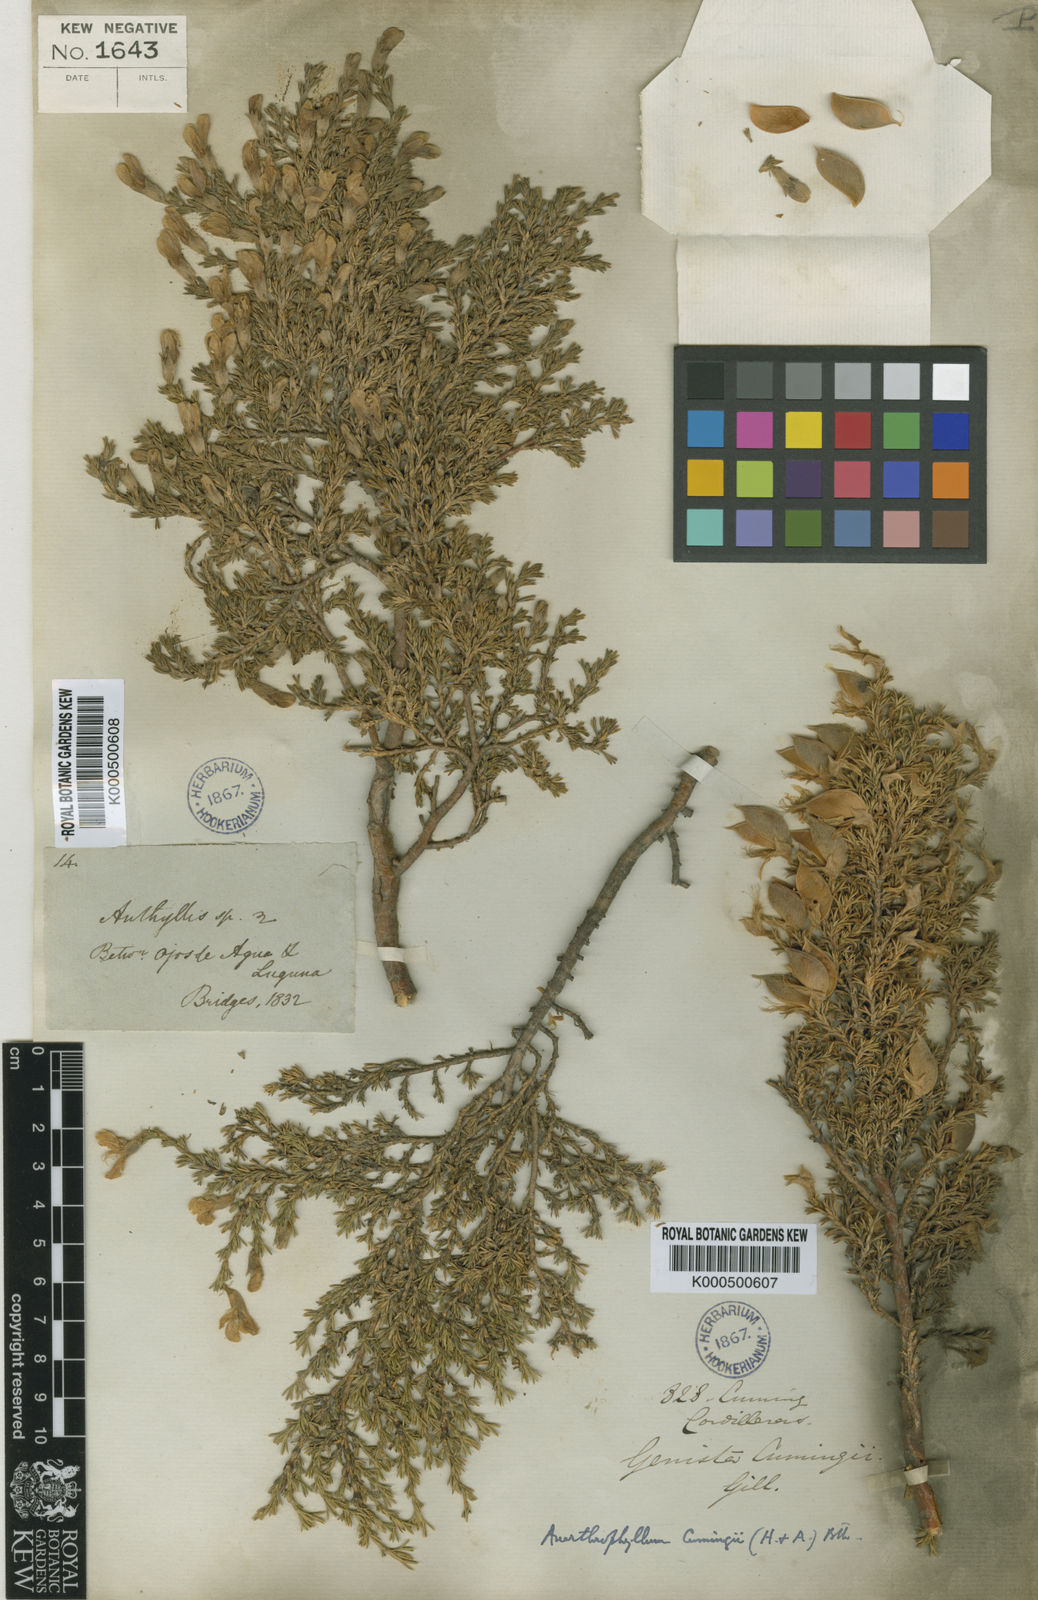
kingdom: Plantae
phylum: Tracheophyta
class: Magnoliopsida
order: Fabales
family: Fabaceae
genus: Anarthrophyllum
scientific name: Anarthrophyllum cumingii
